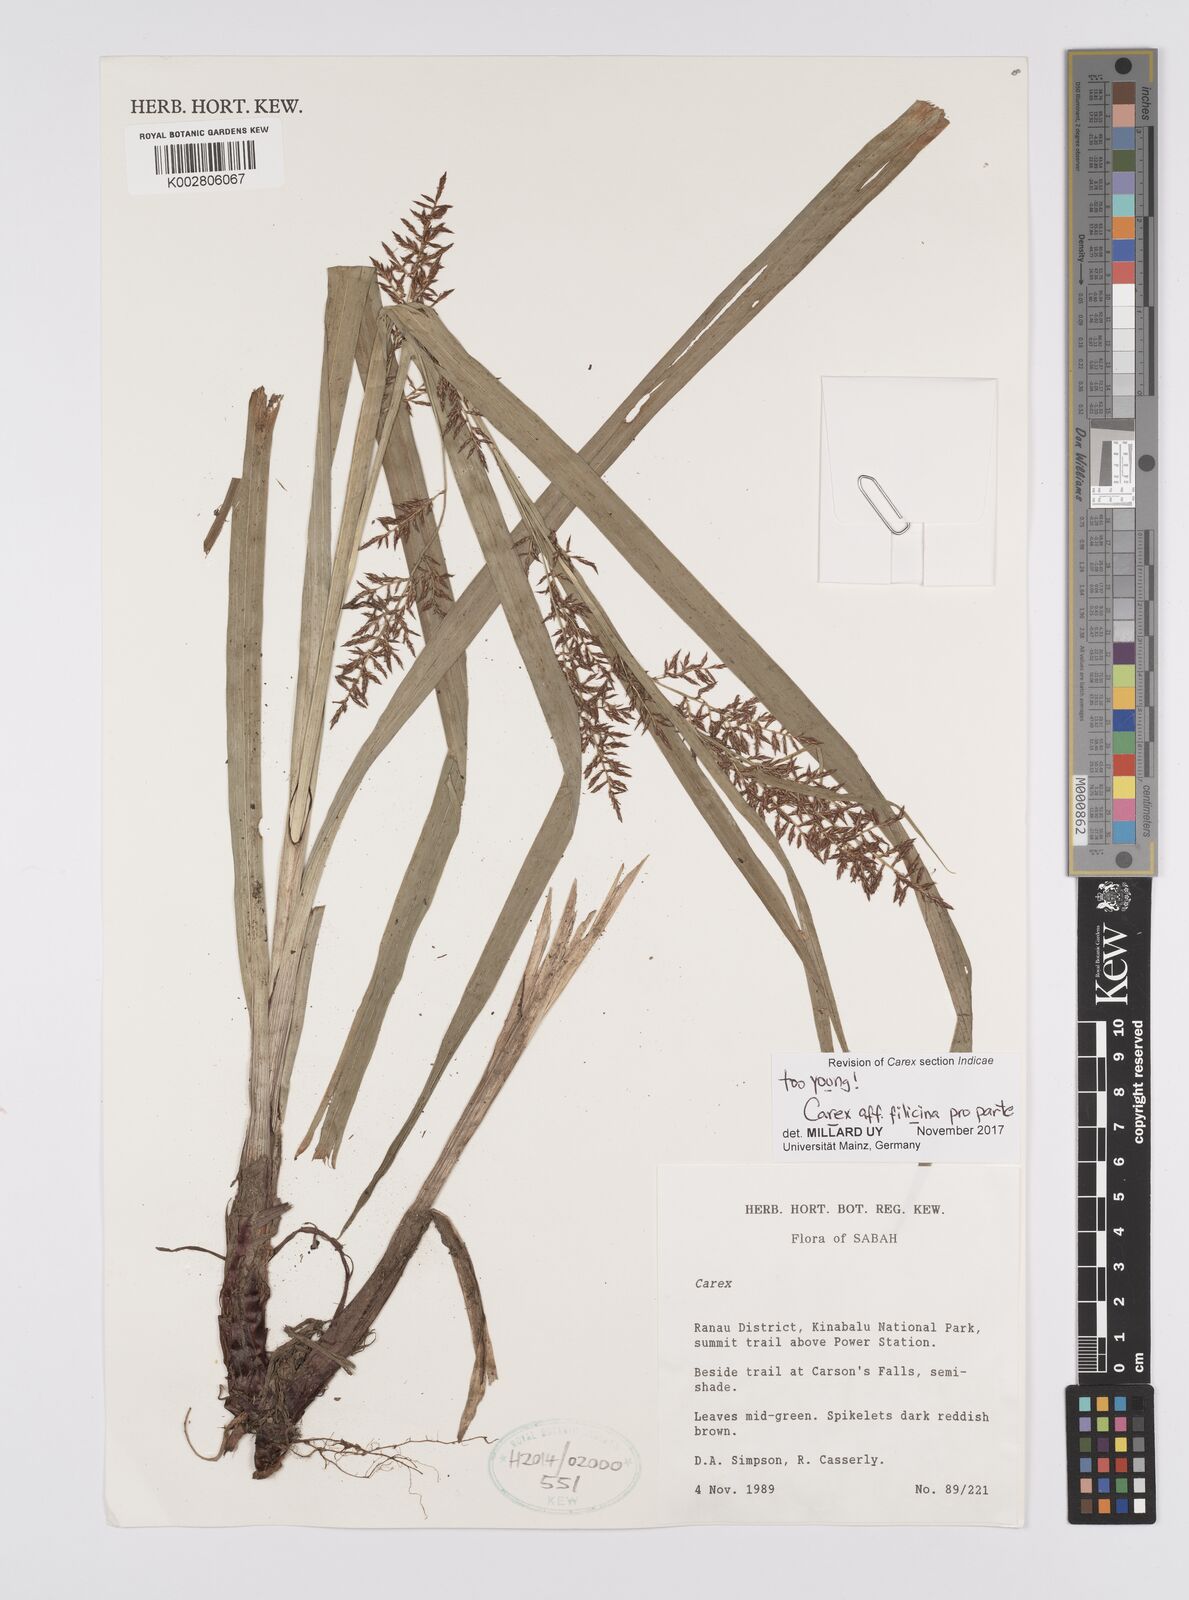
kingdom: Plantae
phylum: Tracheophyta
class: Liliopsida
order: Poales
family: Cyperaceae
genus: Carex
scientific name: Carex filicina
